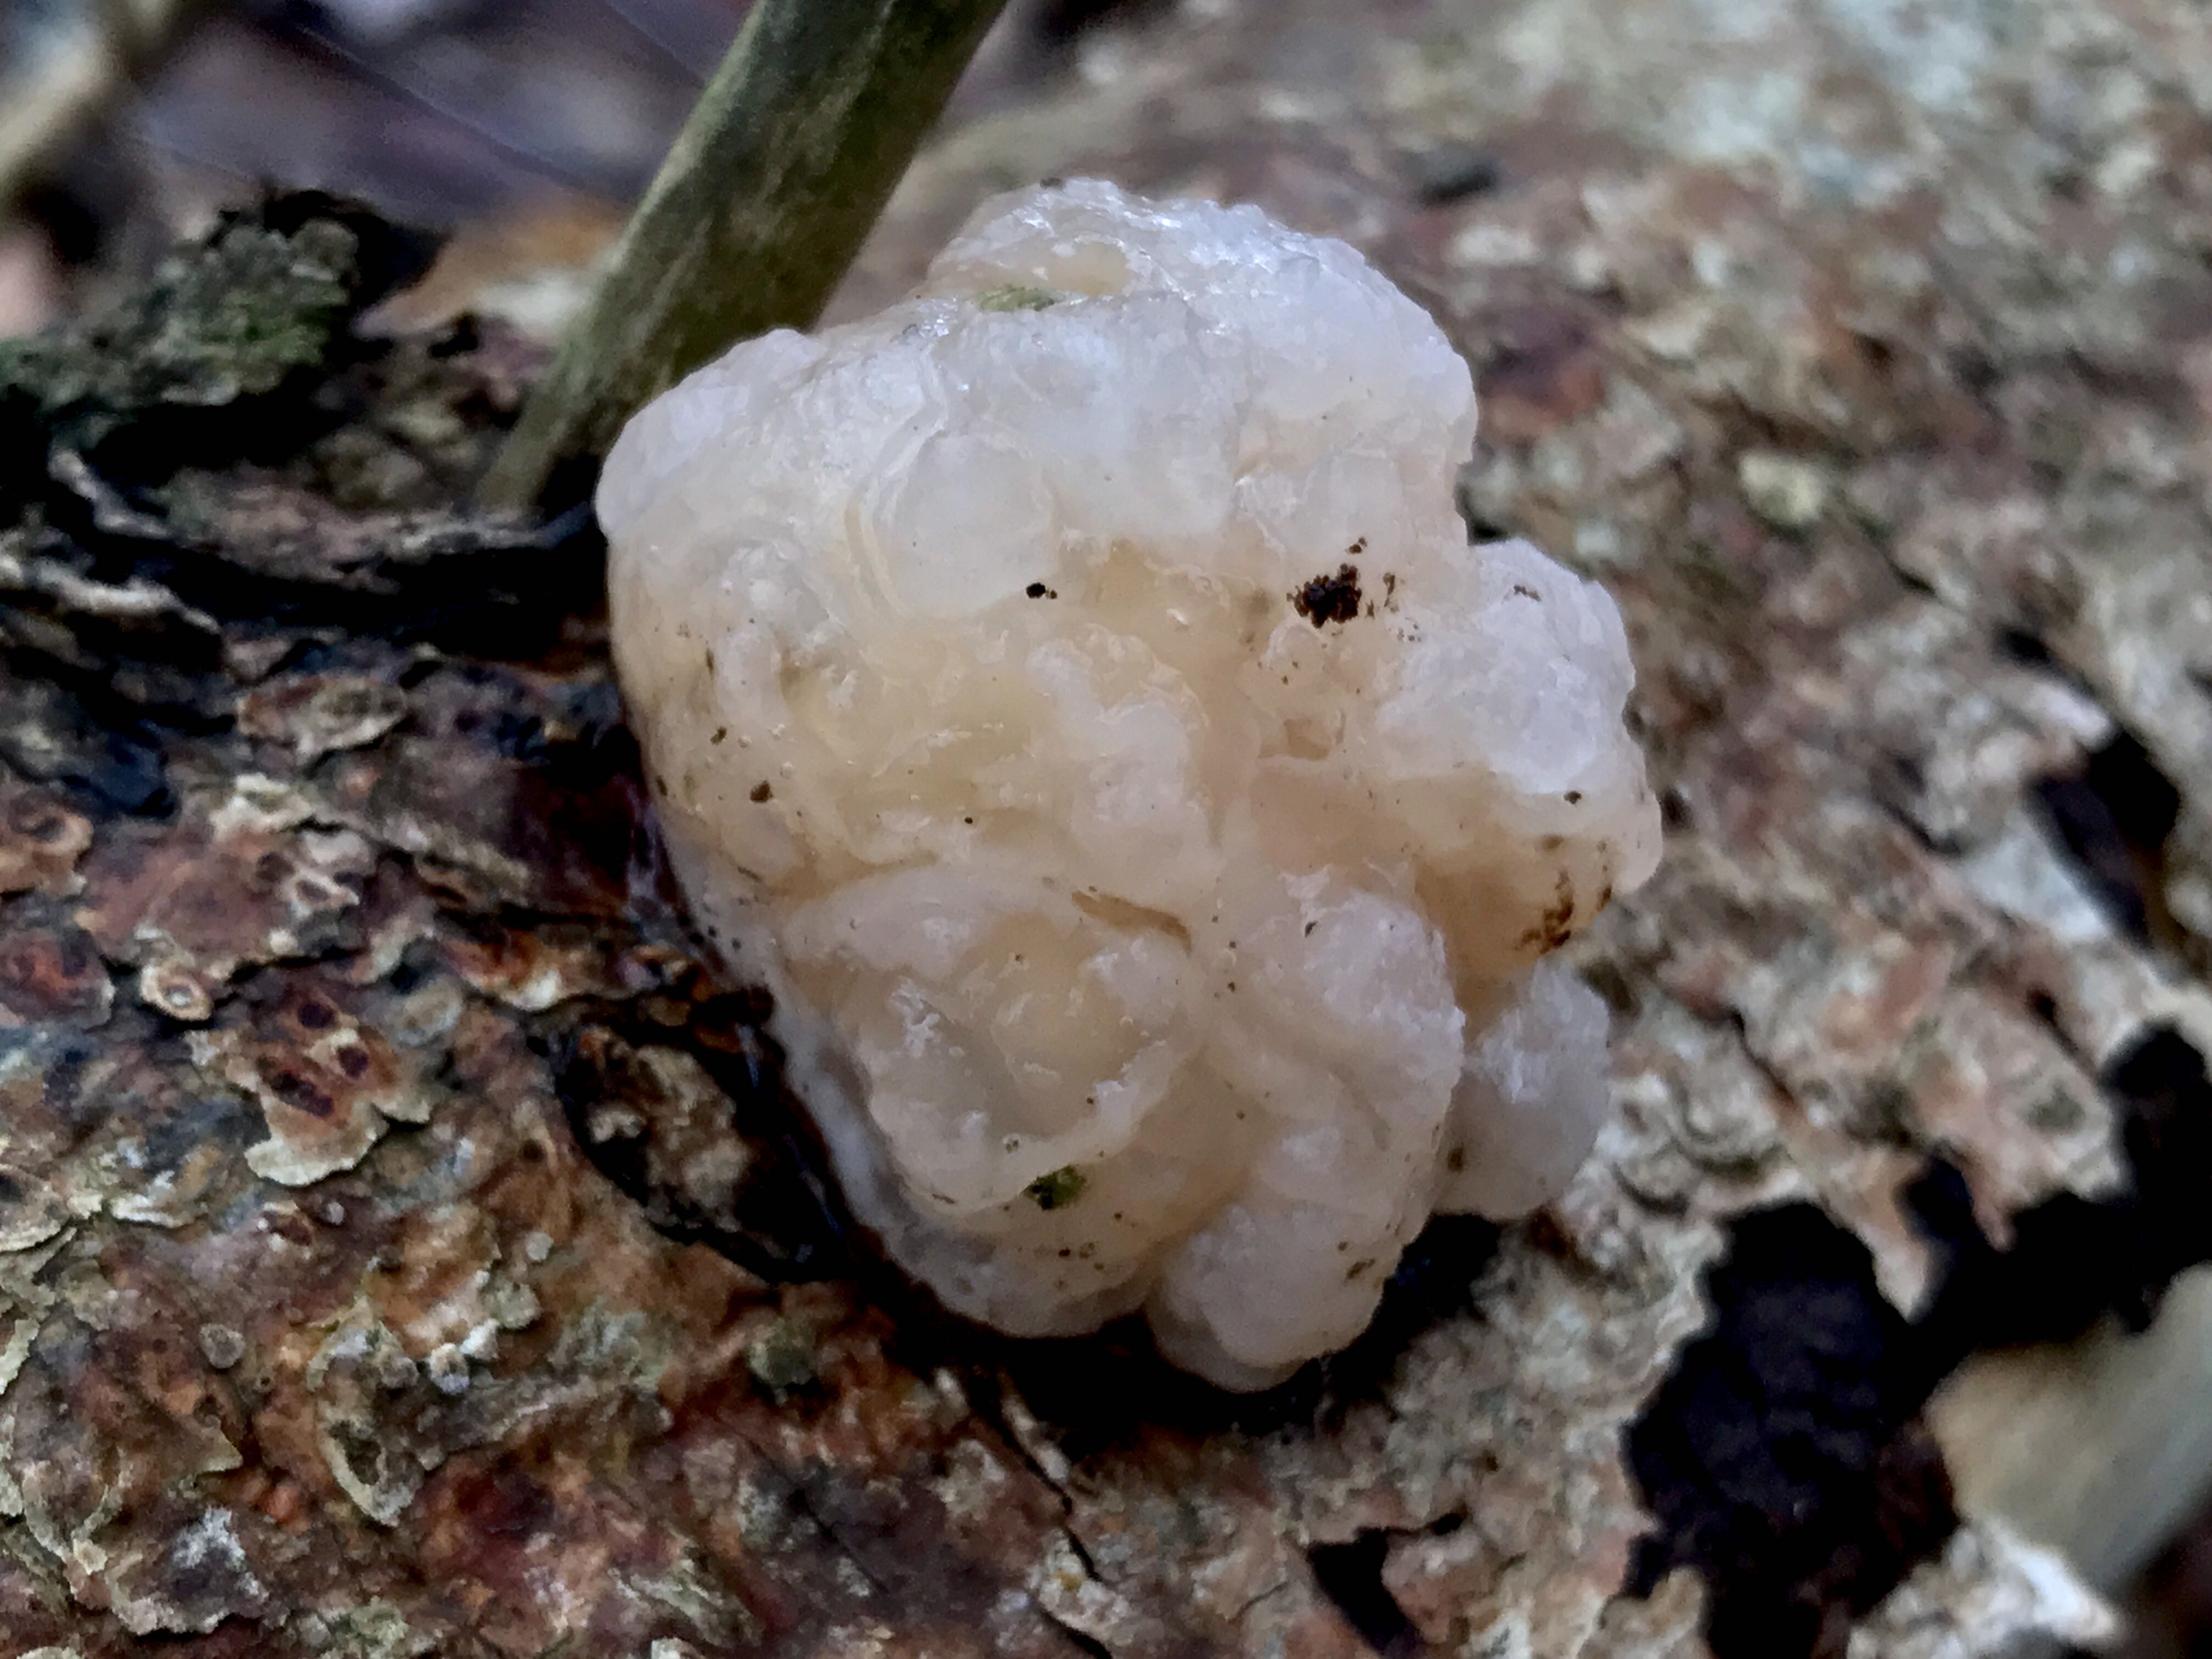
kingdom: Fungi
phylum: Basidiomycota
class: Tremellomycetes
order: Tremellales
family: Naemateliaceae
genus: Naematelia
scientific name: Naematelia encephala
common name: fyrre-bævresvamp
